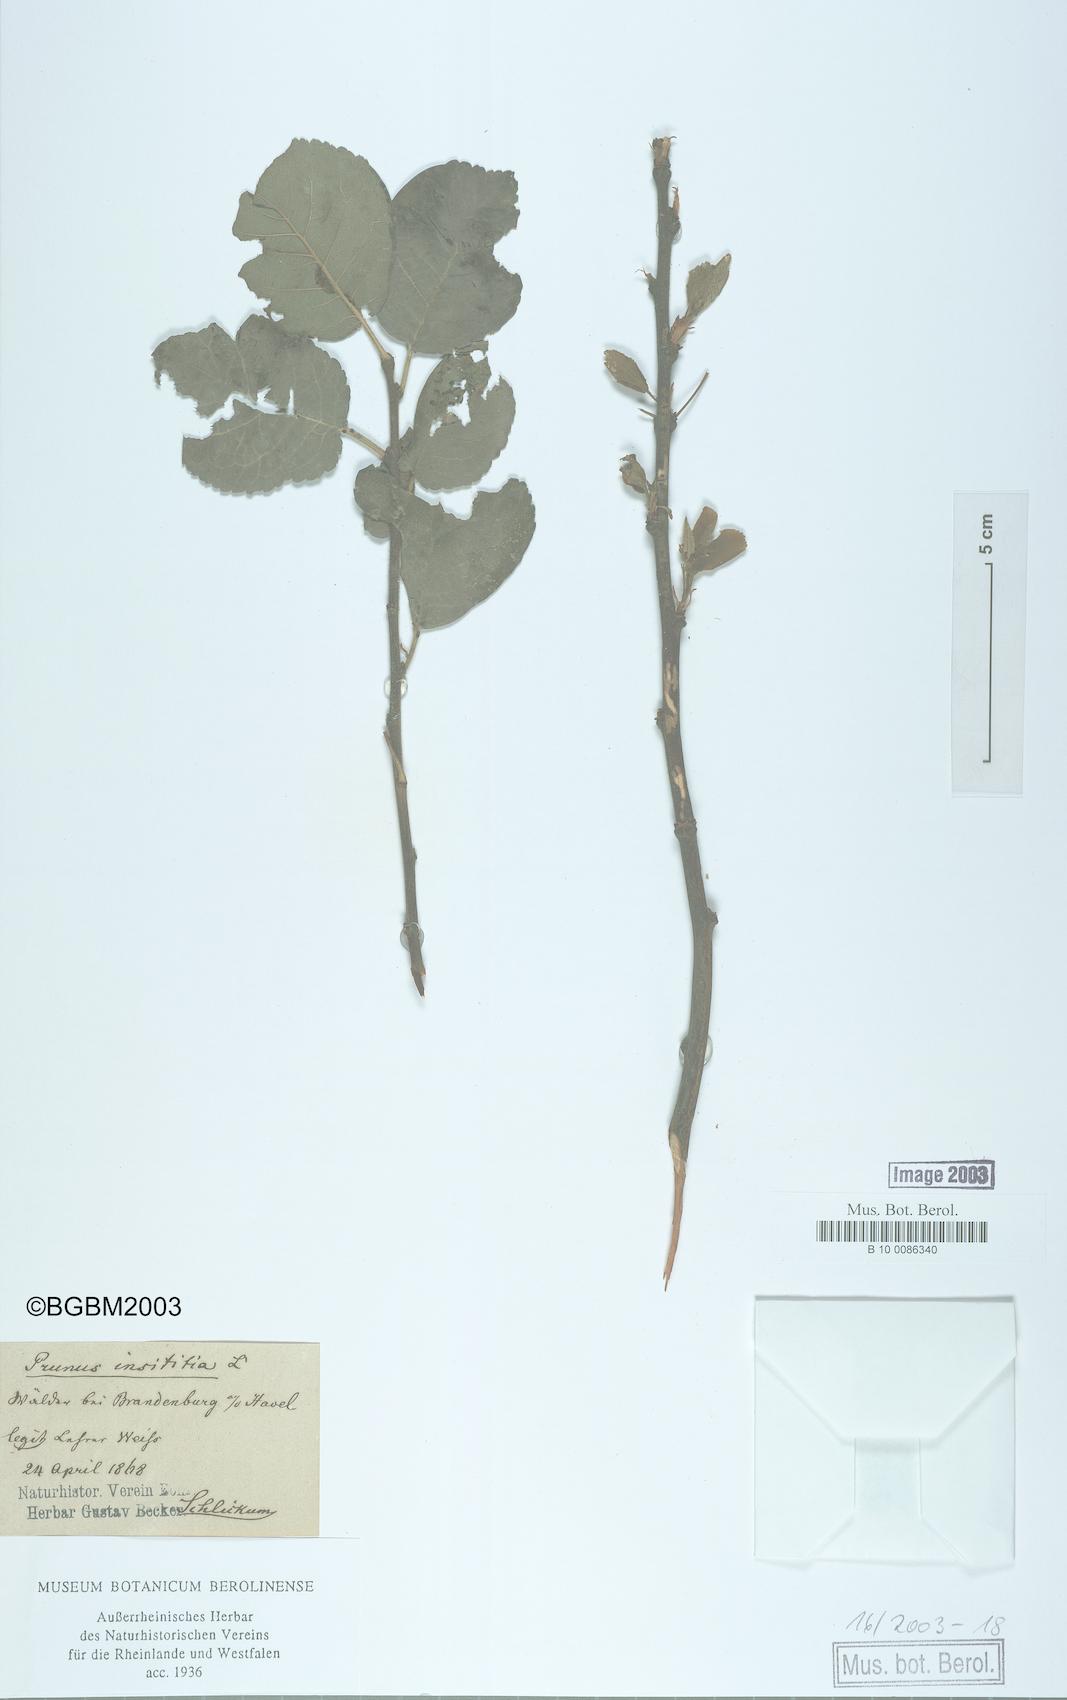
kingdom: Plantae
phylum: Tracheophyta
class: Magnoliopsida
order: Rosales
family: Rosaceae
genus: Prunus
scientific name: Prunus domestica
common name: Wild plum
